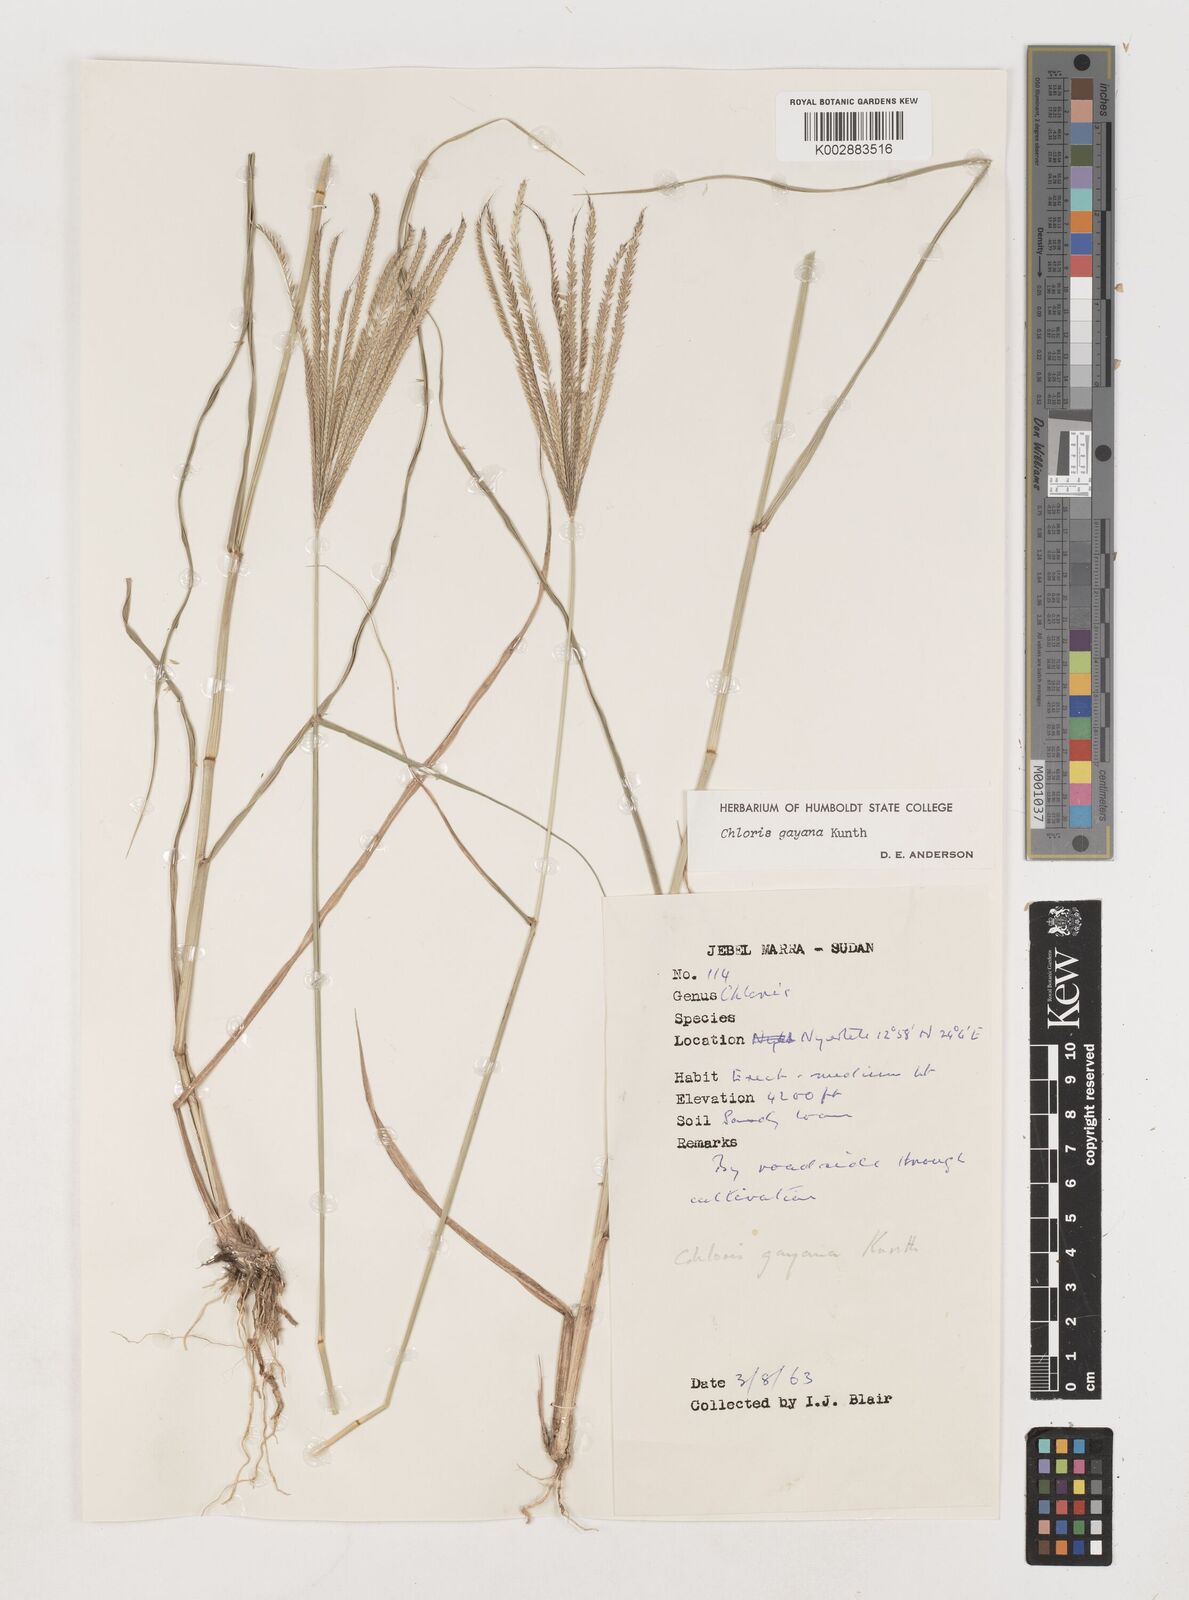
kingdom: Plantae
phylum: Tracheophyta
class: Liliopsida
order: Poales
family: Poaceae
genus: Chloris
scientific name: Chloris gayana
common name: Rhodes grass
